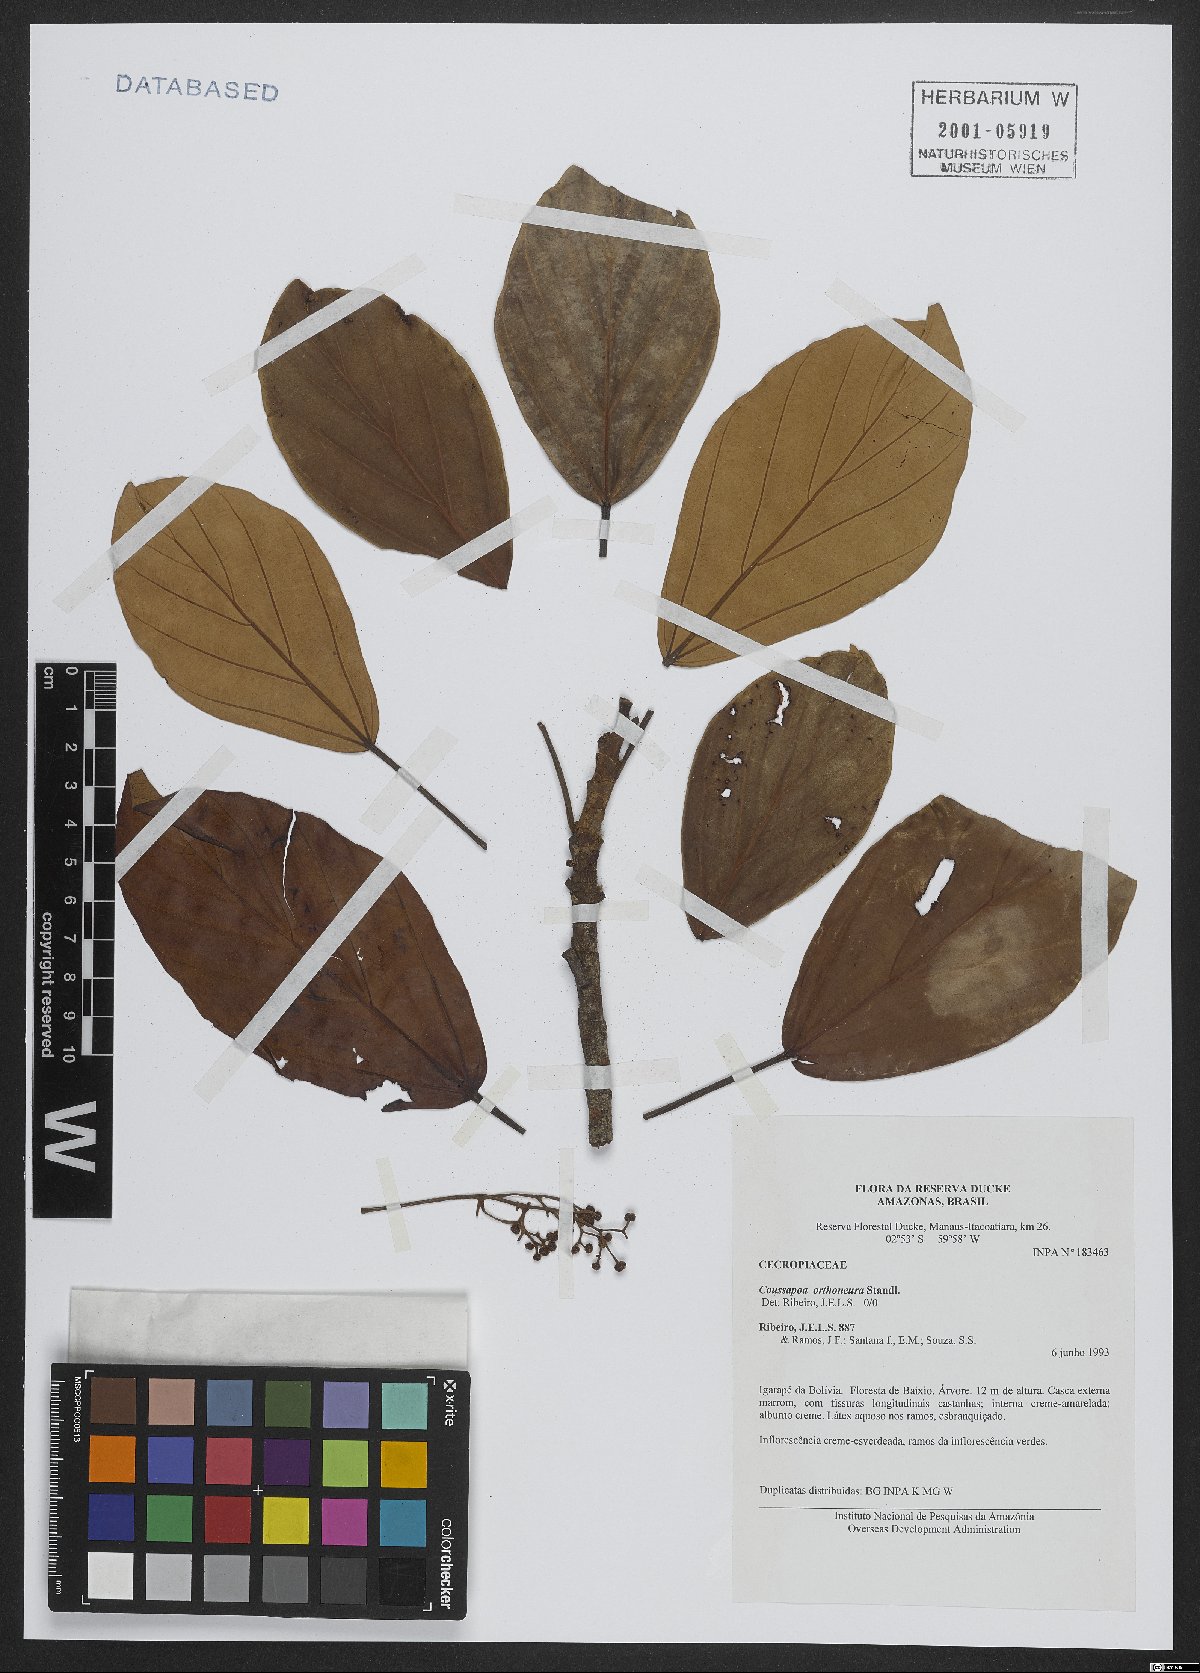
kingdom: Plantae
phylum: Tracheophyta
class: Magnoliopsida
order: Rosales
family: Urticaceae
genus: Coussapoa
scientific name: Coussapoa orthoneura
